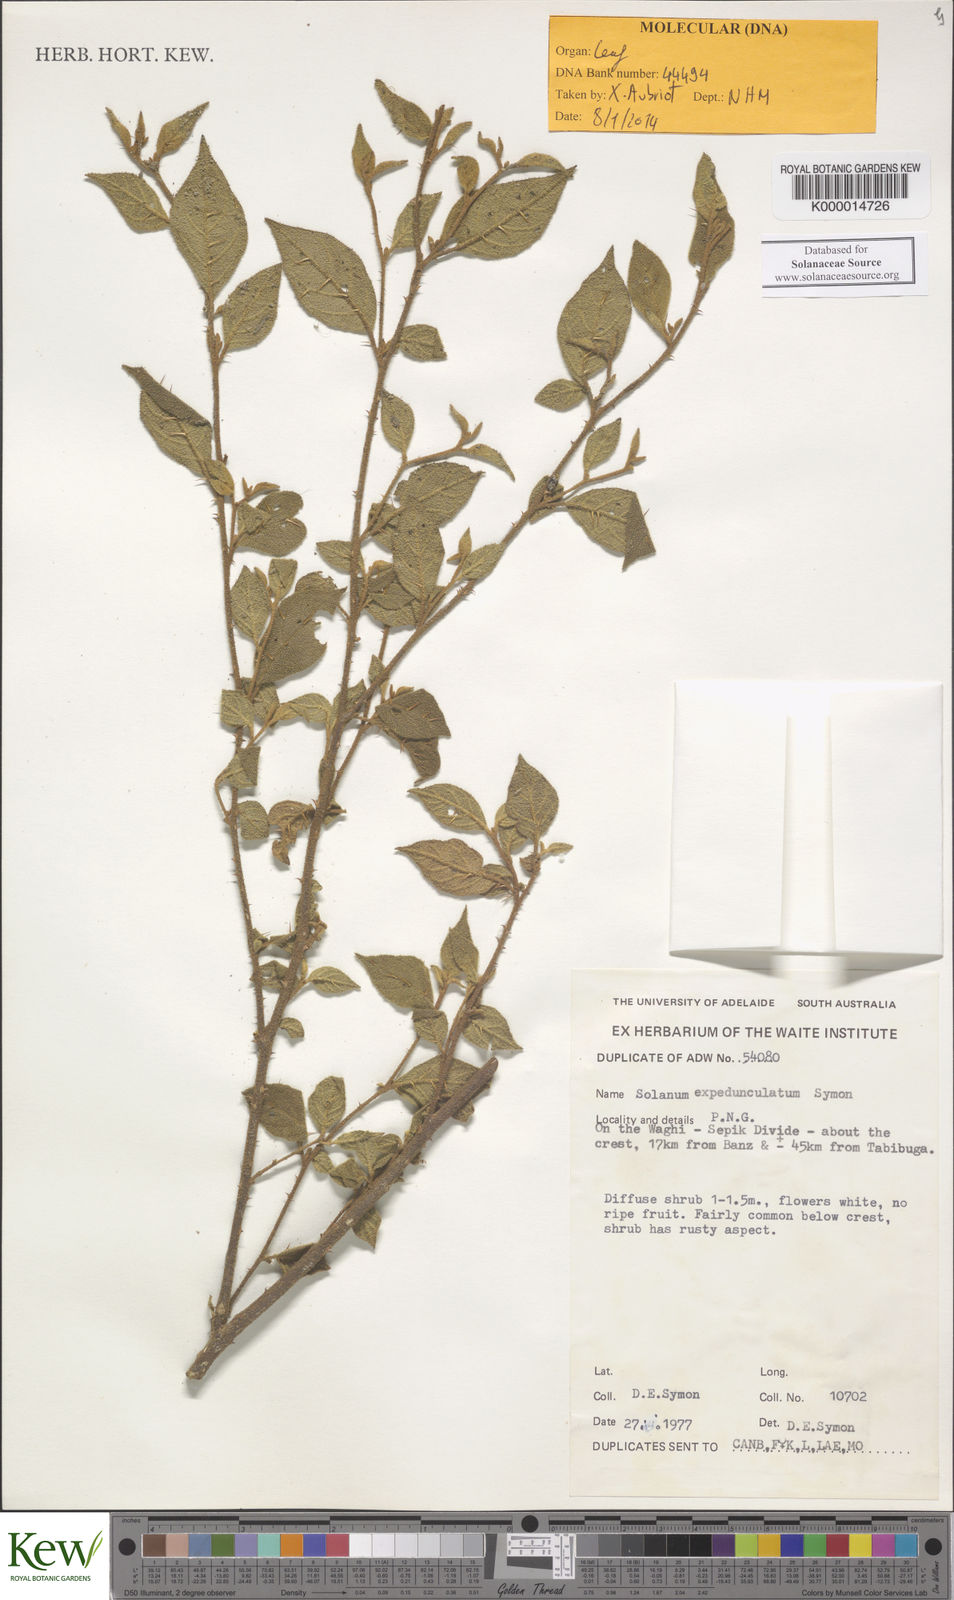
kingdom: Plantae
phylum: Tracheophyta
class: Magnoliopsida
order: Solanales
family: Solanaceae
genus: Solanum
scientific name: Solanum expedunculatum
